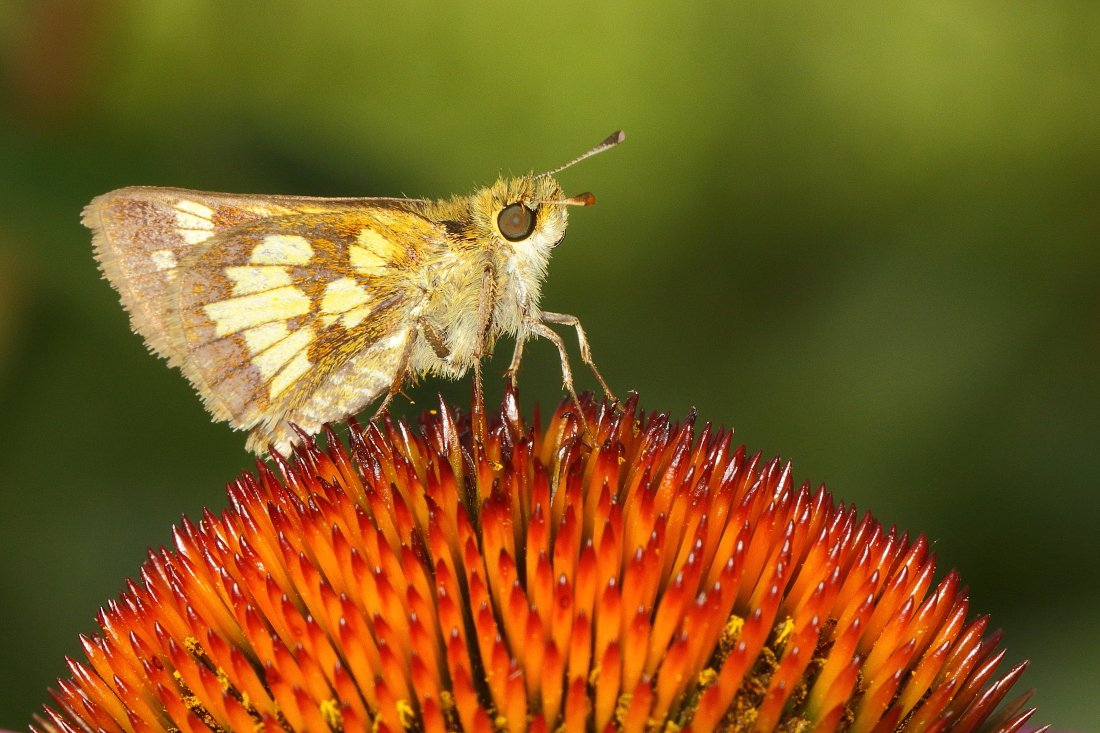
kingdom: Animalia
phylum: Arthropoda
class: Insecta
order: Lepidoptera
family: Hesperiidae
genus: Polites
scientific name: Polites coras
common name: Peck's Skipper
